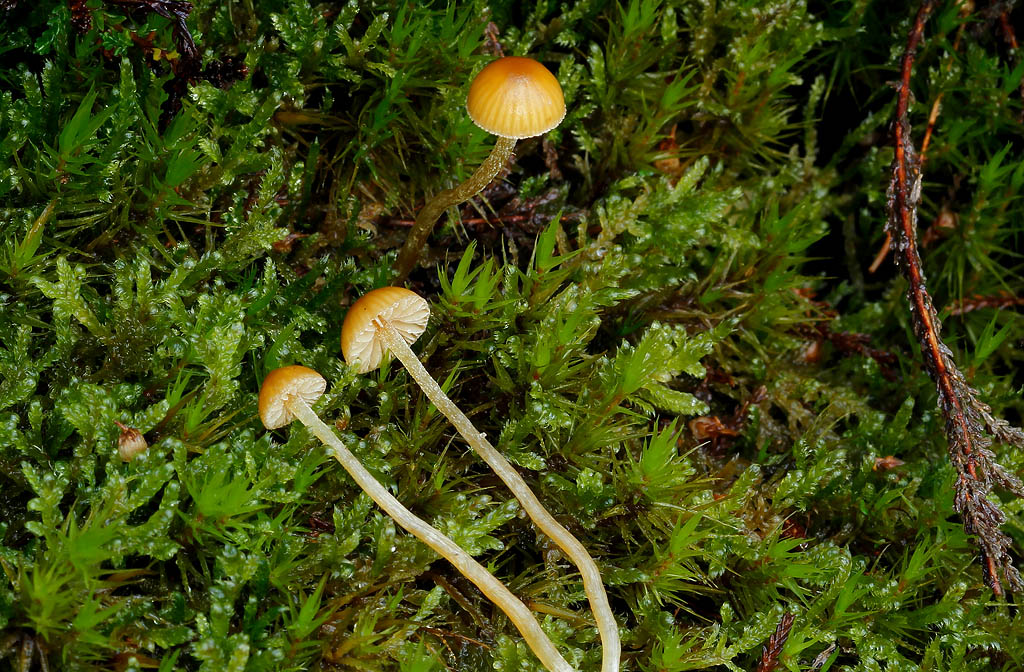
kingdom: Fungi
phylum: Basidiomycota
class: Agaricomycetes
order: Agaricales
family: Hymenogastraceae
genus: Galerina
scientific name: Galerina pumila
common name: honninggul hjelmhat
